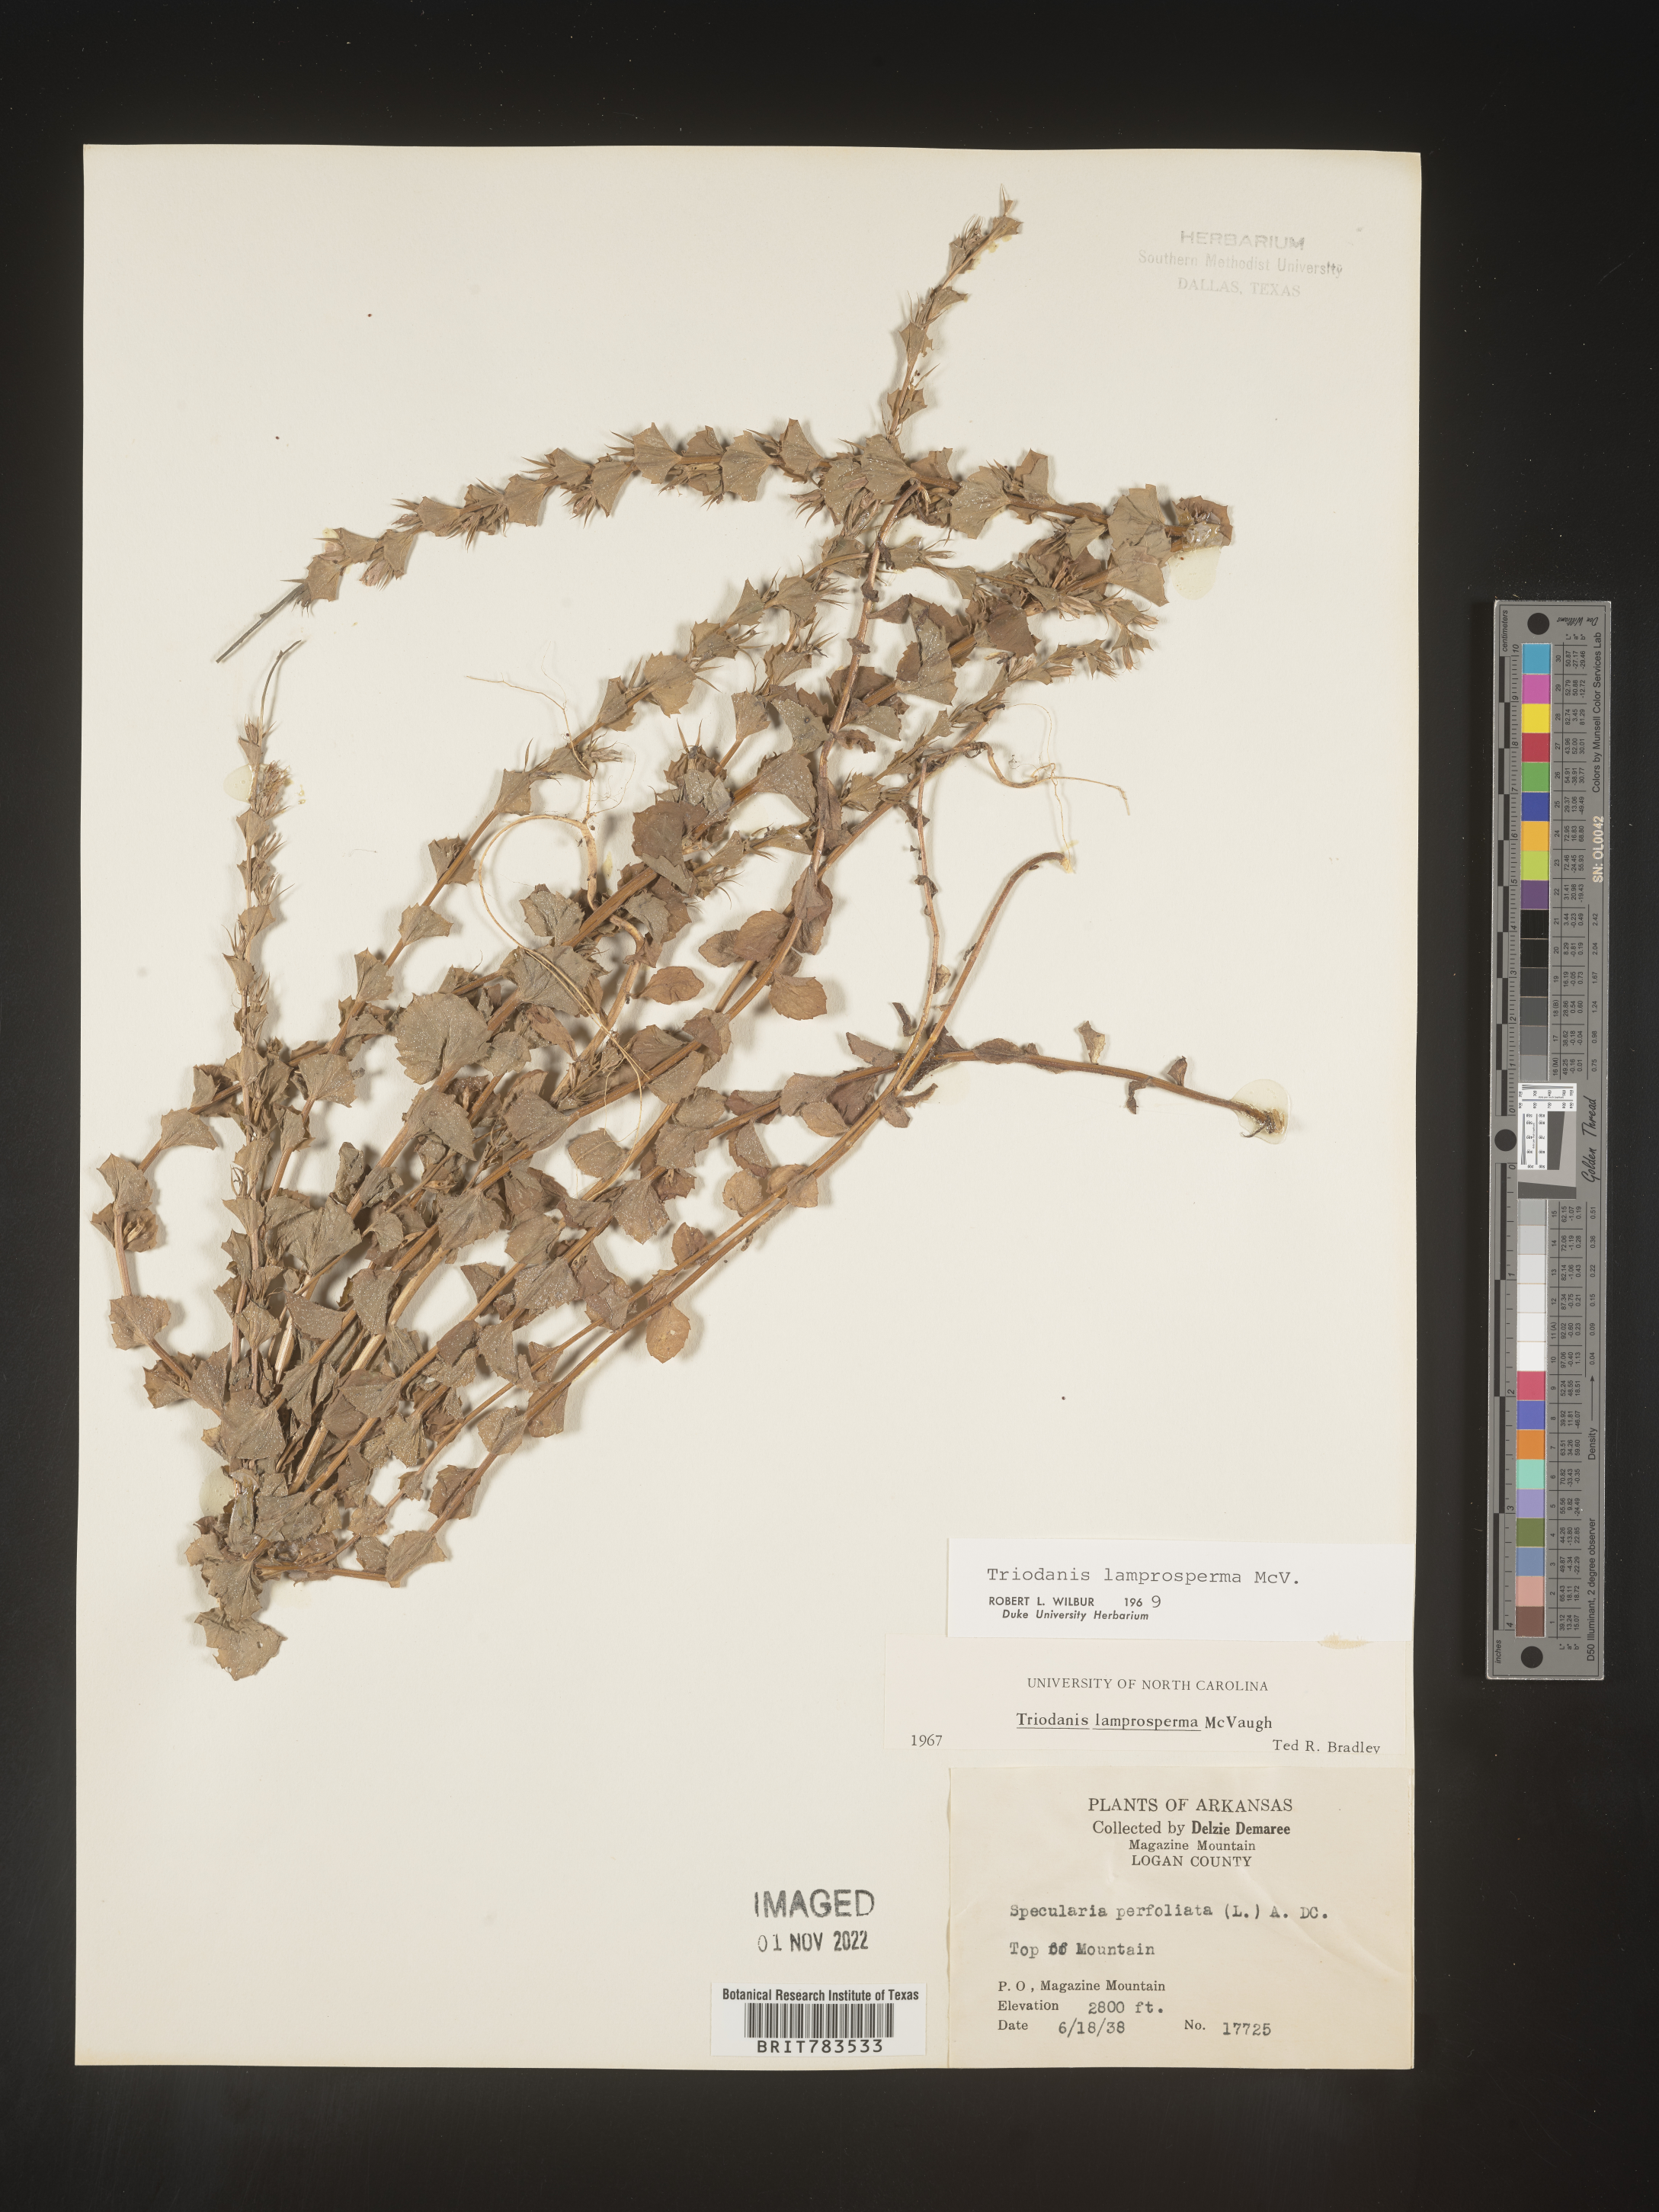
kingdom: Plantae
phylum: Tracheophyta
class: Magnoliopsida
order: Asterales
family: Campanulaceae
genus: Triodanis
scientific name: Triodanis lamprosperma
